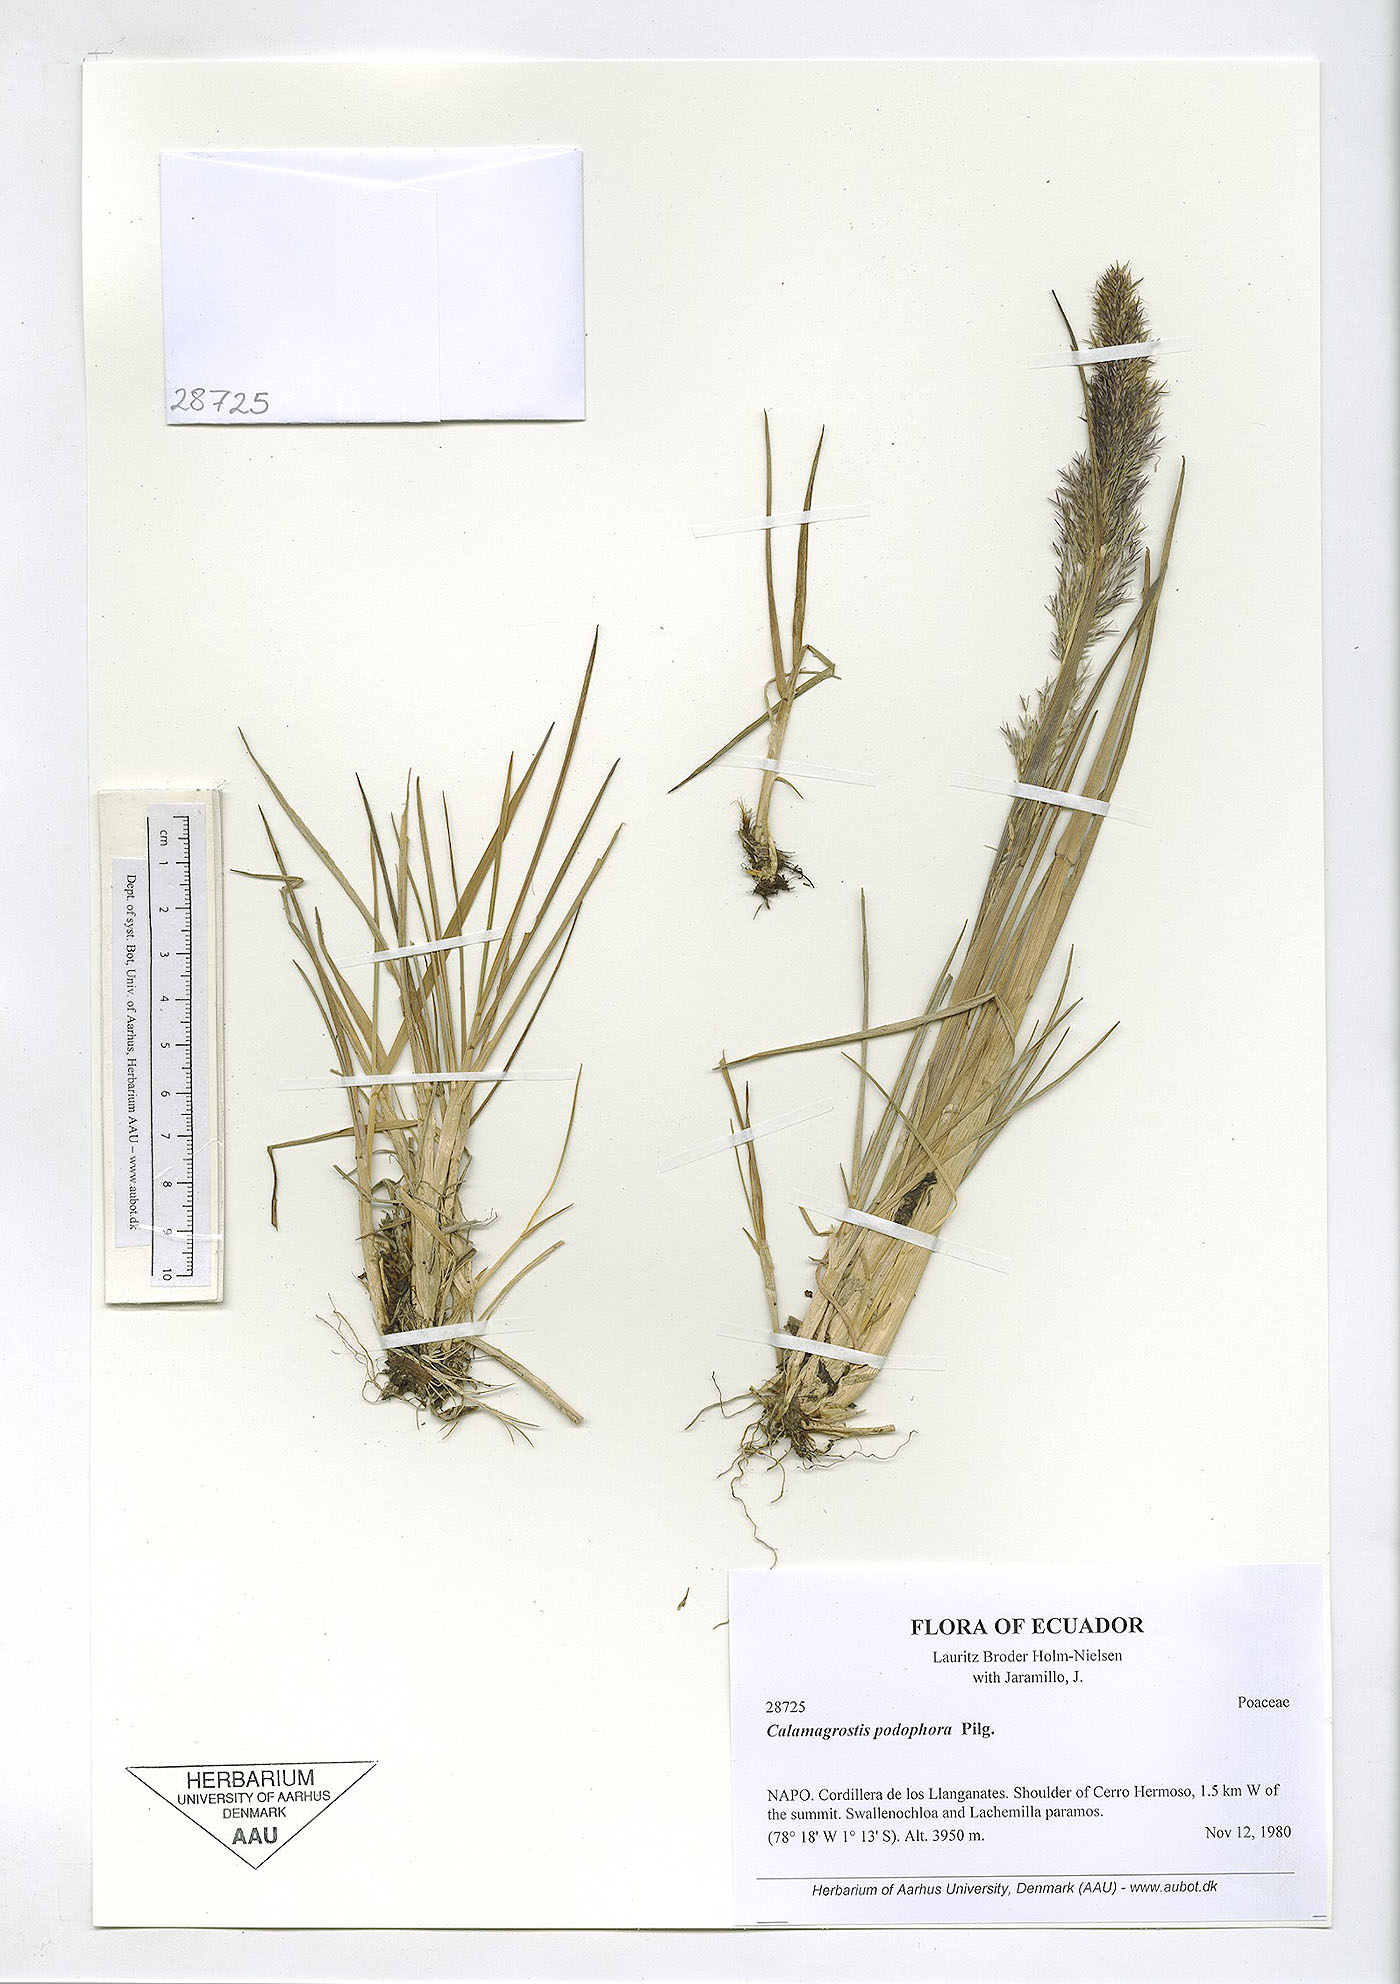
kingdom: Plantae
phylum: Tracheophyta
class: Liliopsida
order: Poales
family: Poaceae
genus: Calamagrostis
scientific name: Calamagrostis
